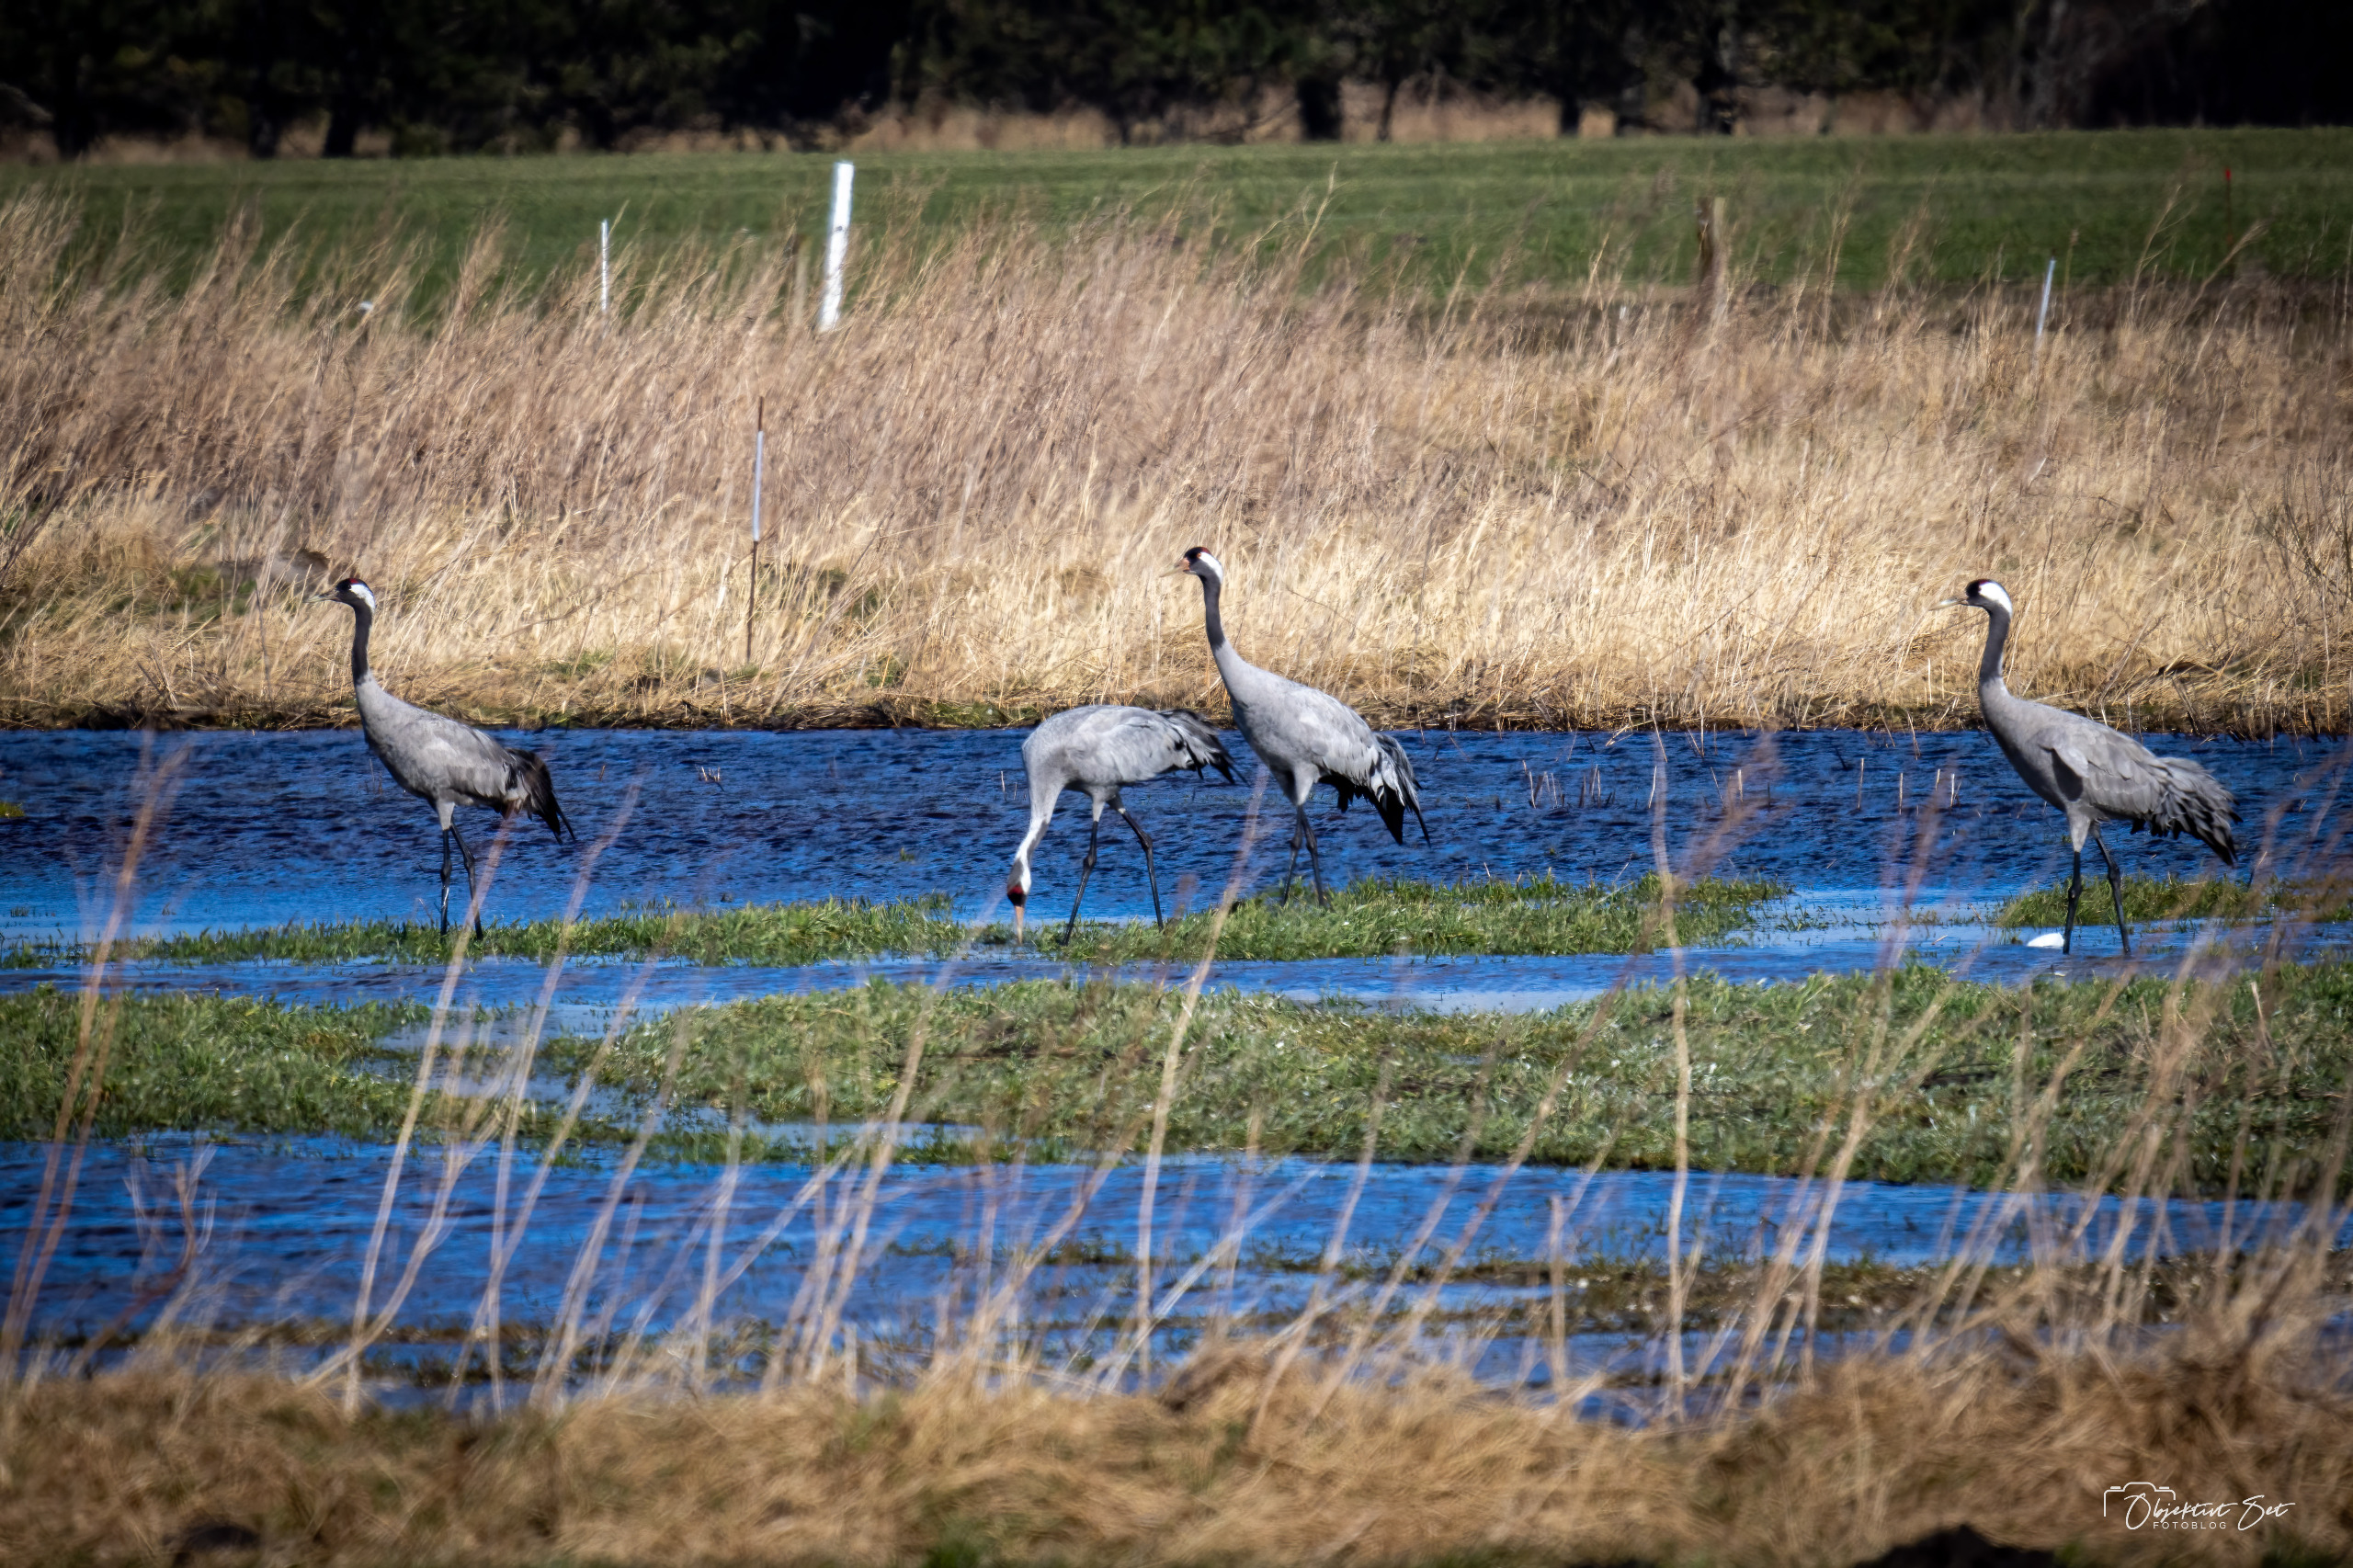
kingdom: Animalia
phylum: Chordata
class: Aves
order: Gruiformes
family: Gruidae
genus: Grus
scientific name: Grus grus
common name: Trane
